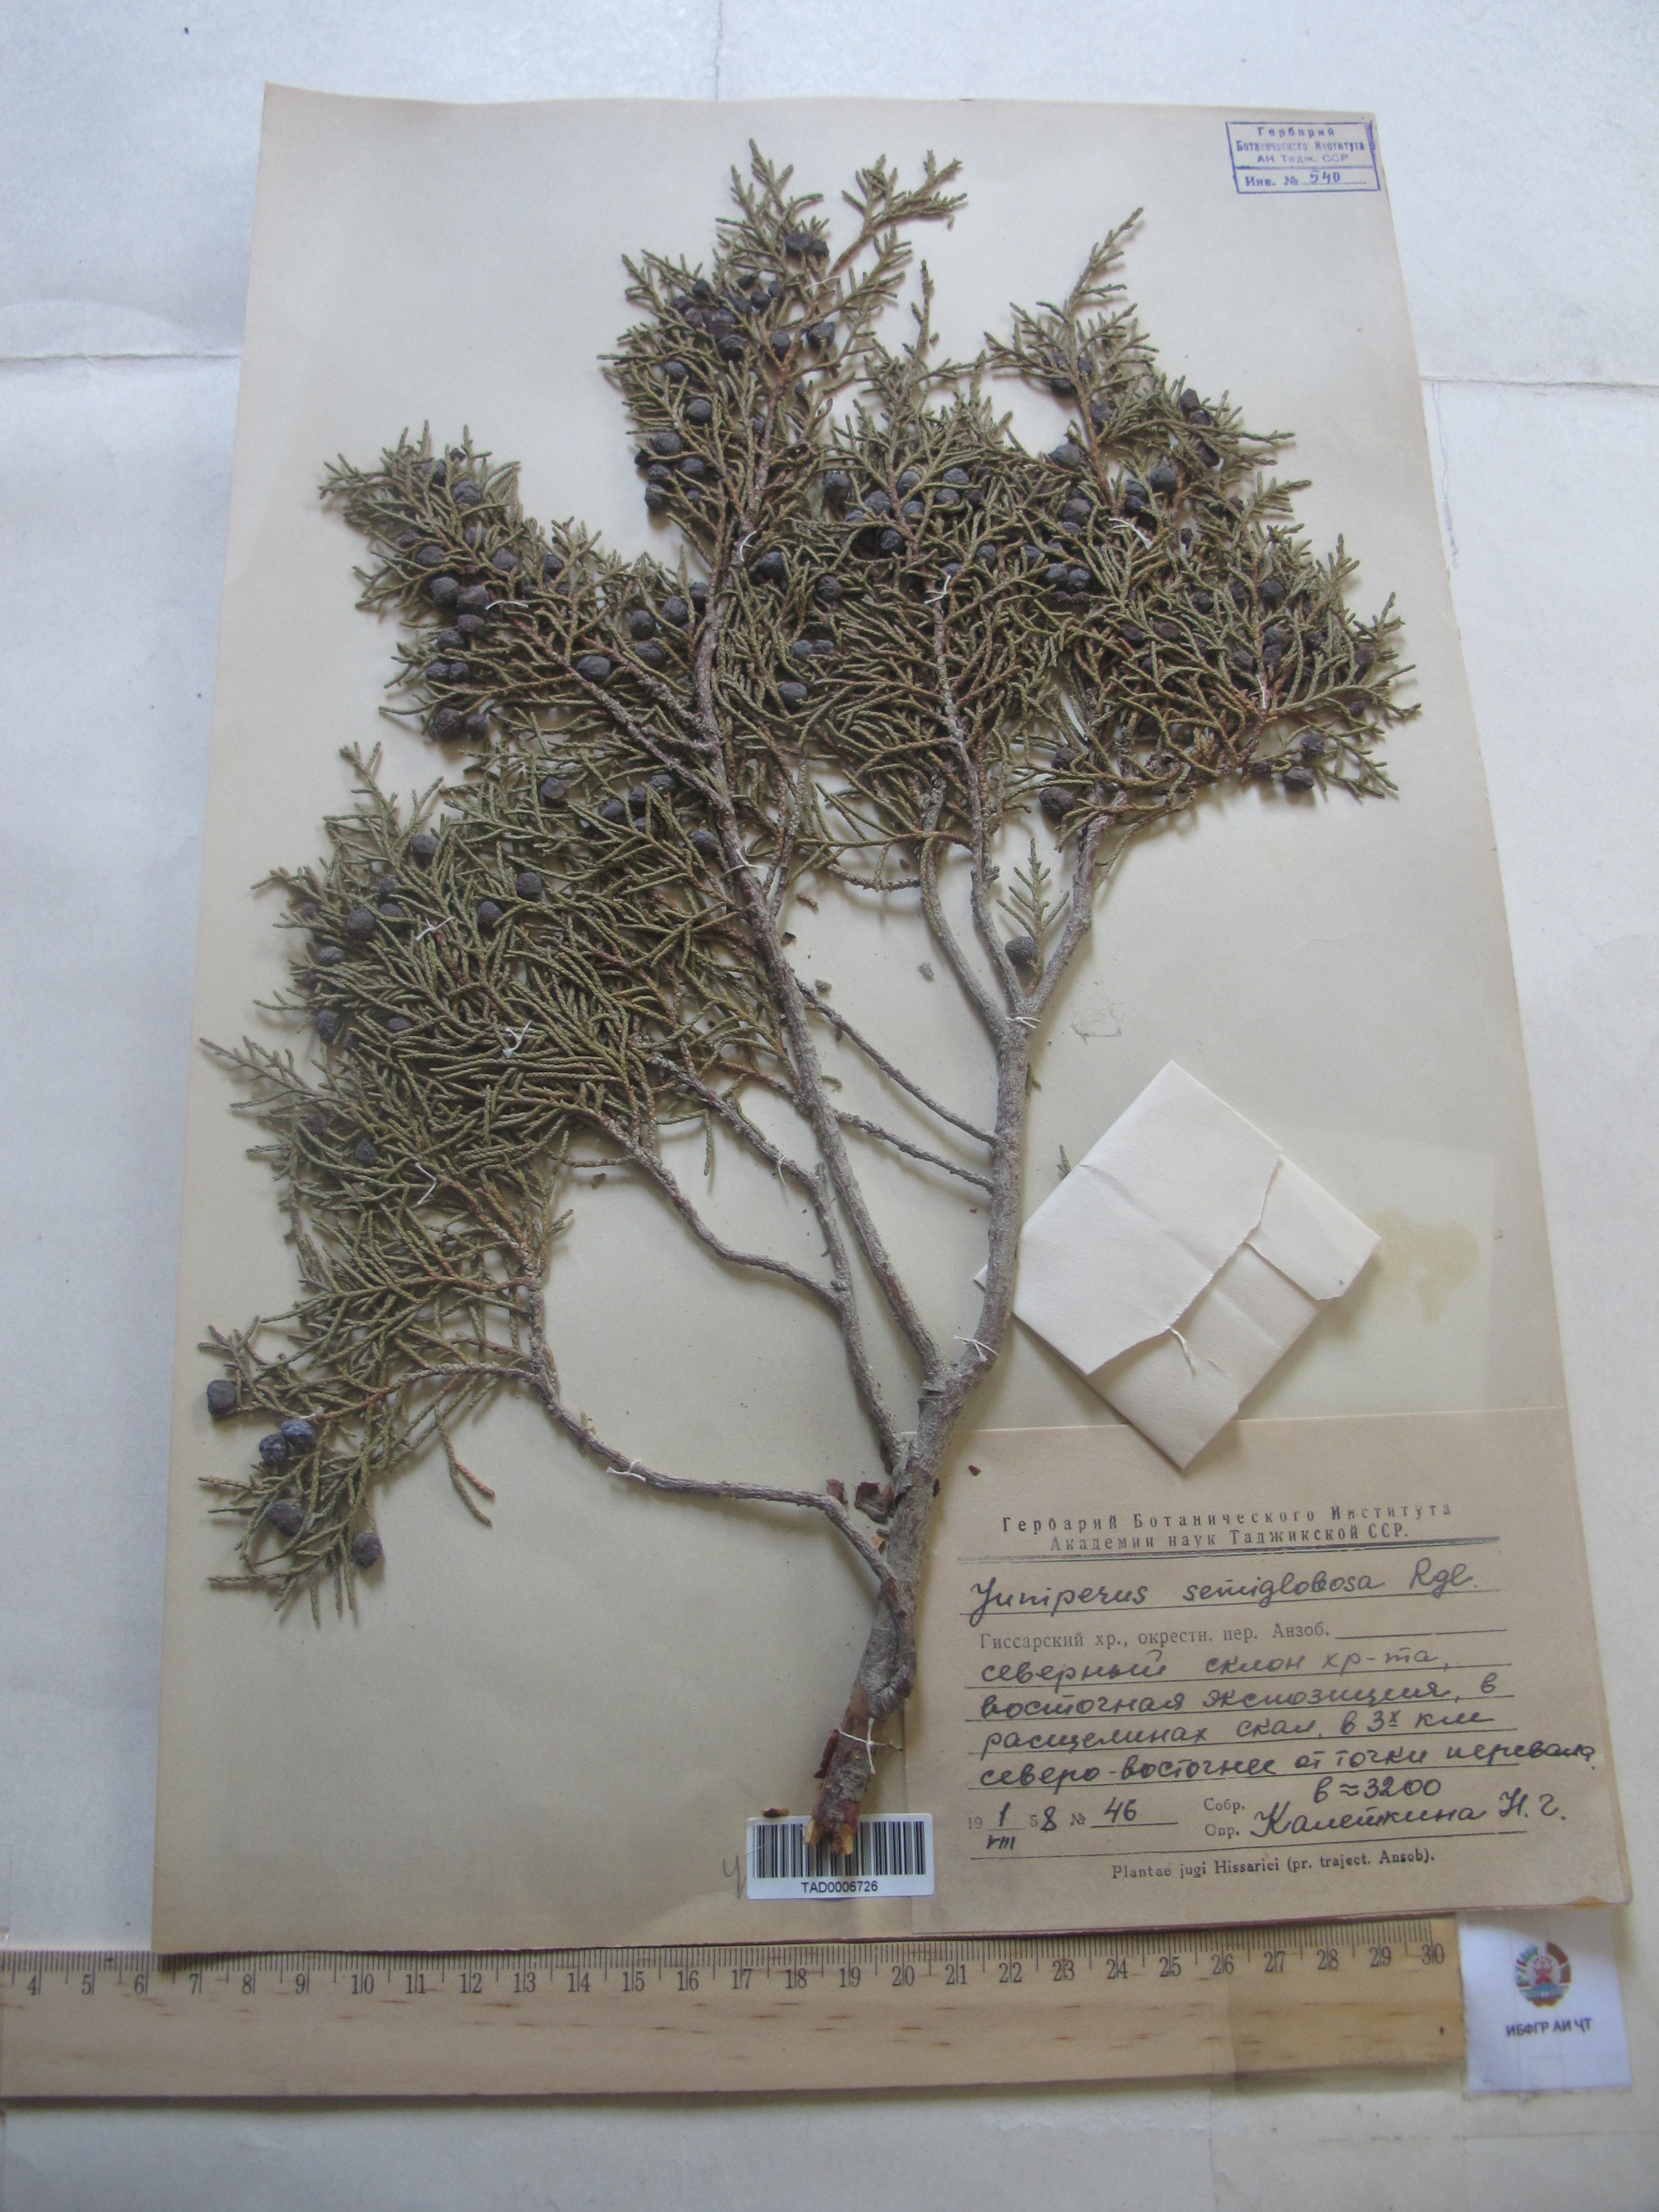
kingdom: Plantae
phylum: Tracheophyta
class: Pinopsida
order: Pinales
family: Cupressaceae
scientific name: Cupressaceae
